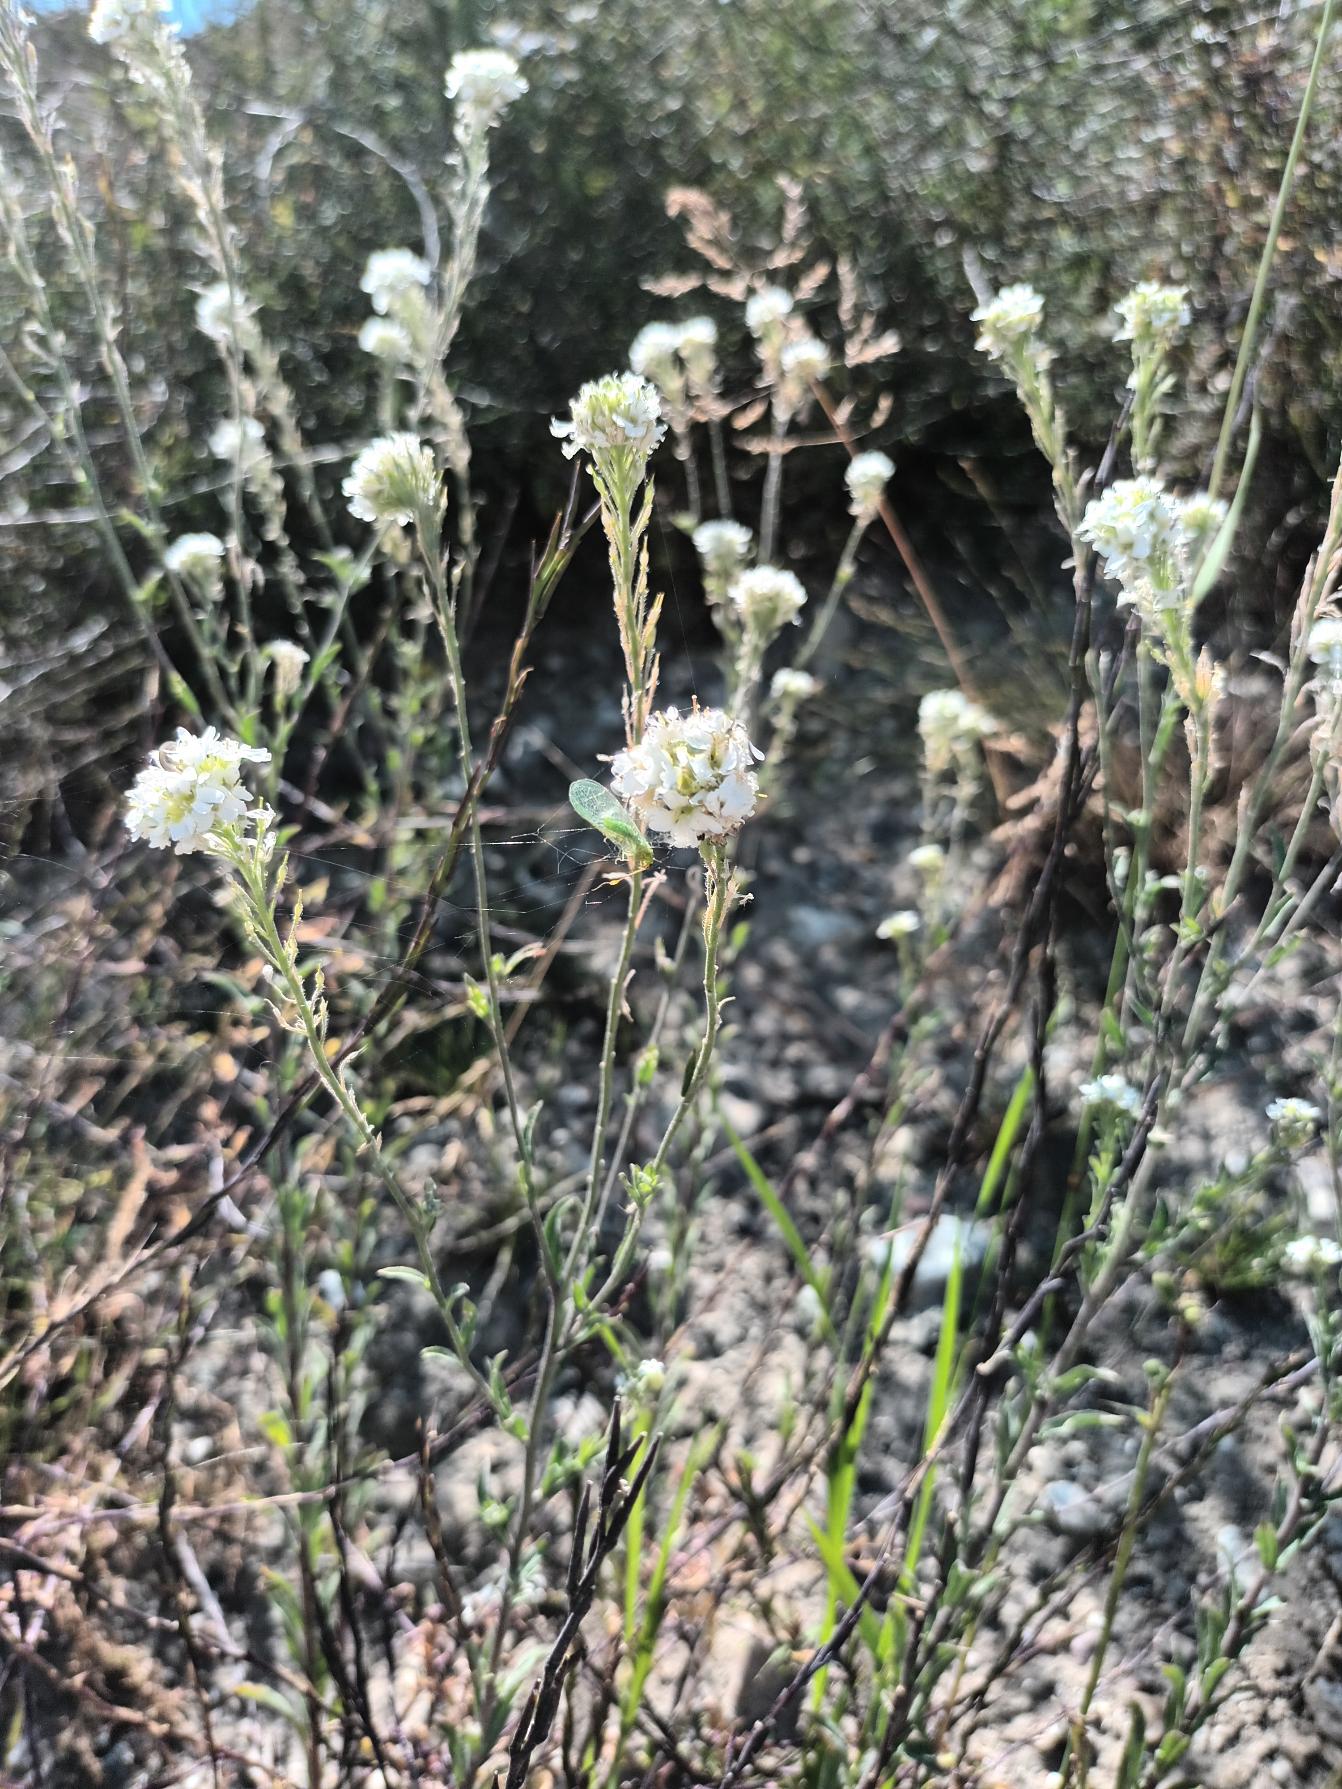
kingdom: Plantae
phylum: Tracheophyta
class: Magnoliopsida
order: Brassicales
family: Brassicaceae
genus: Berteroa
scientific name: Berteroa incana
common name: Kløvplade
